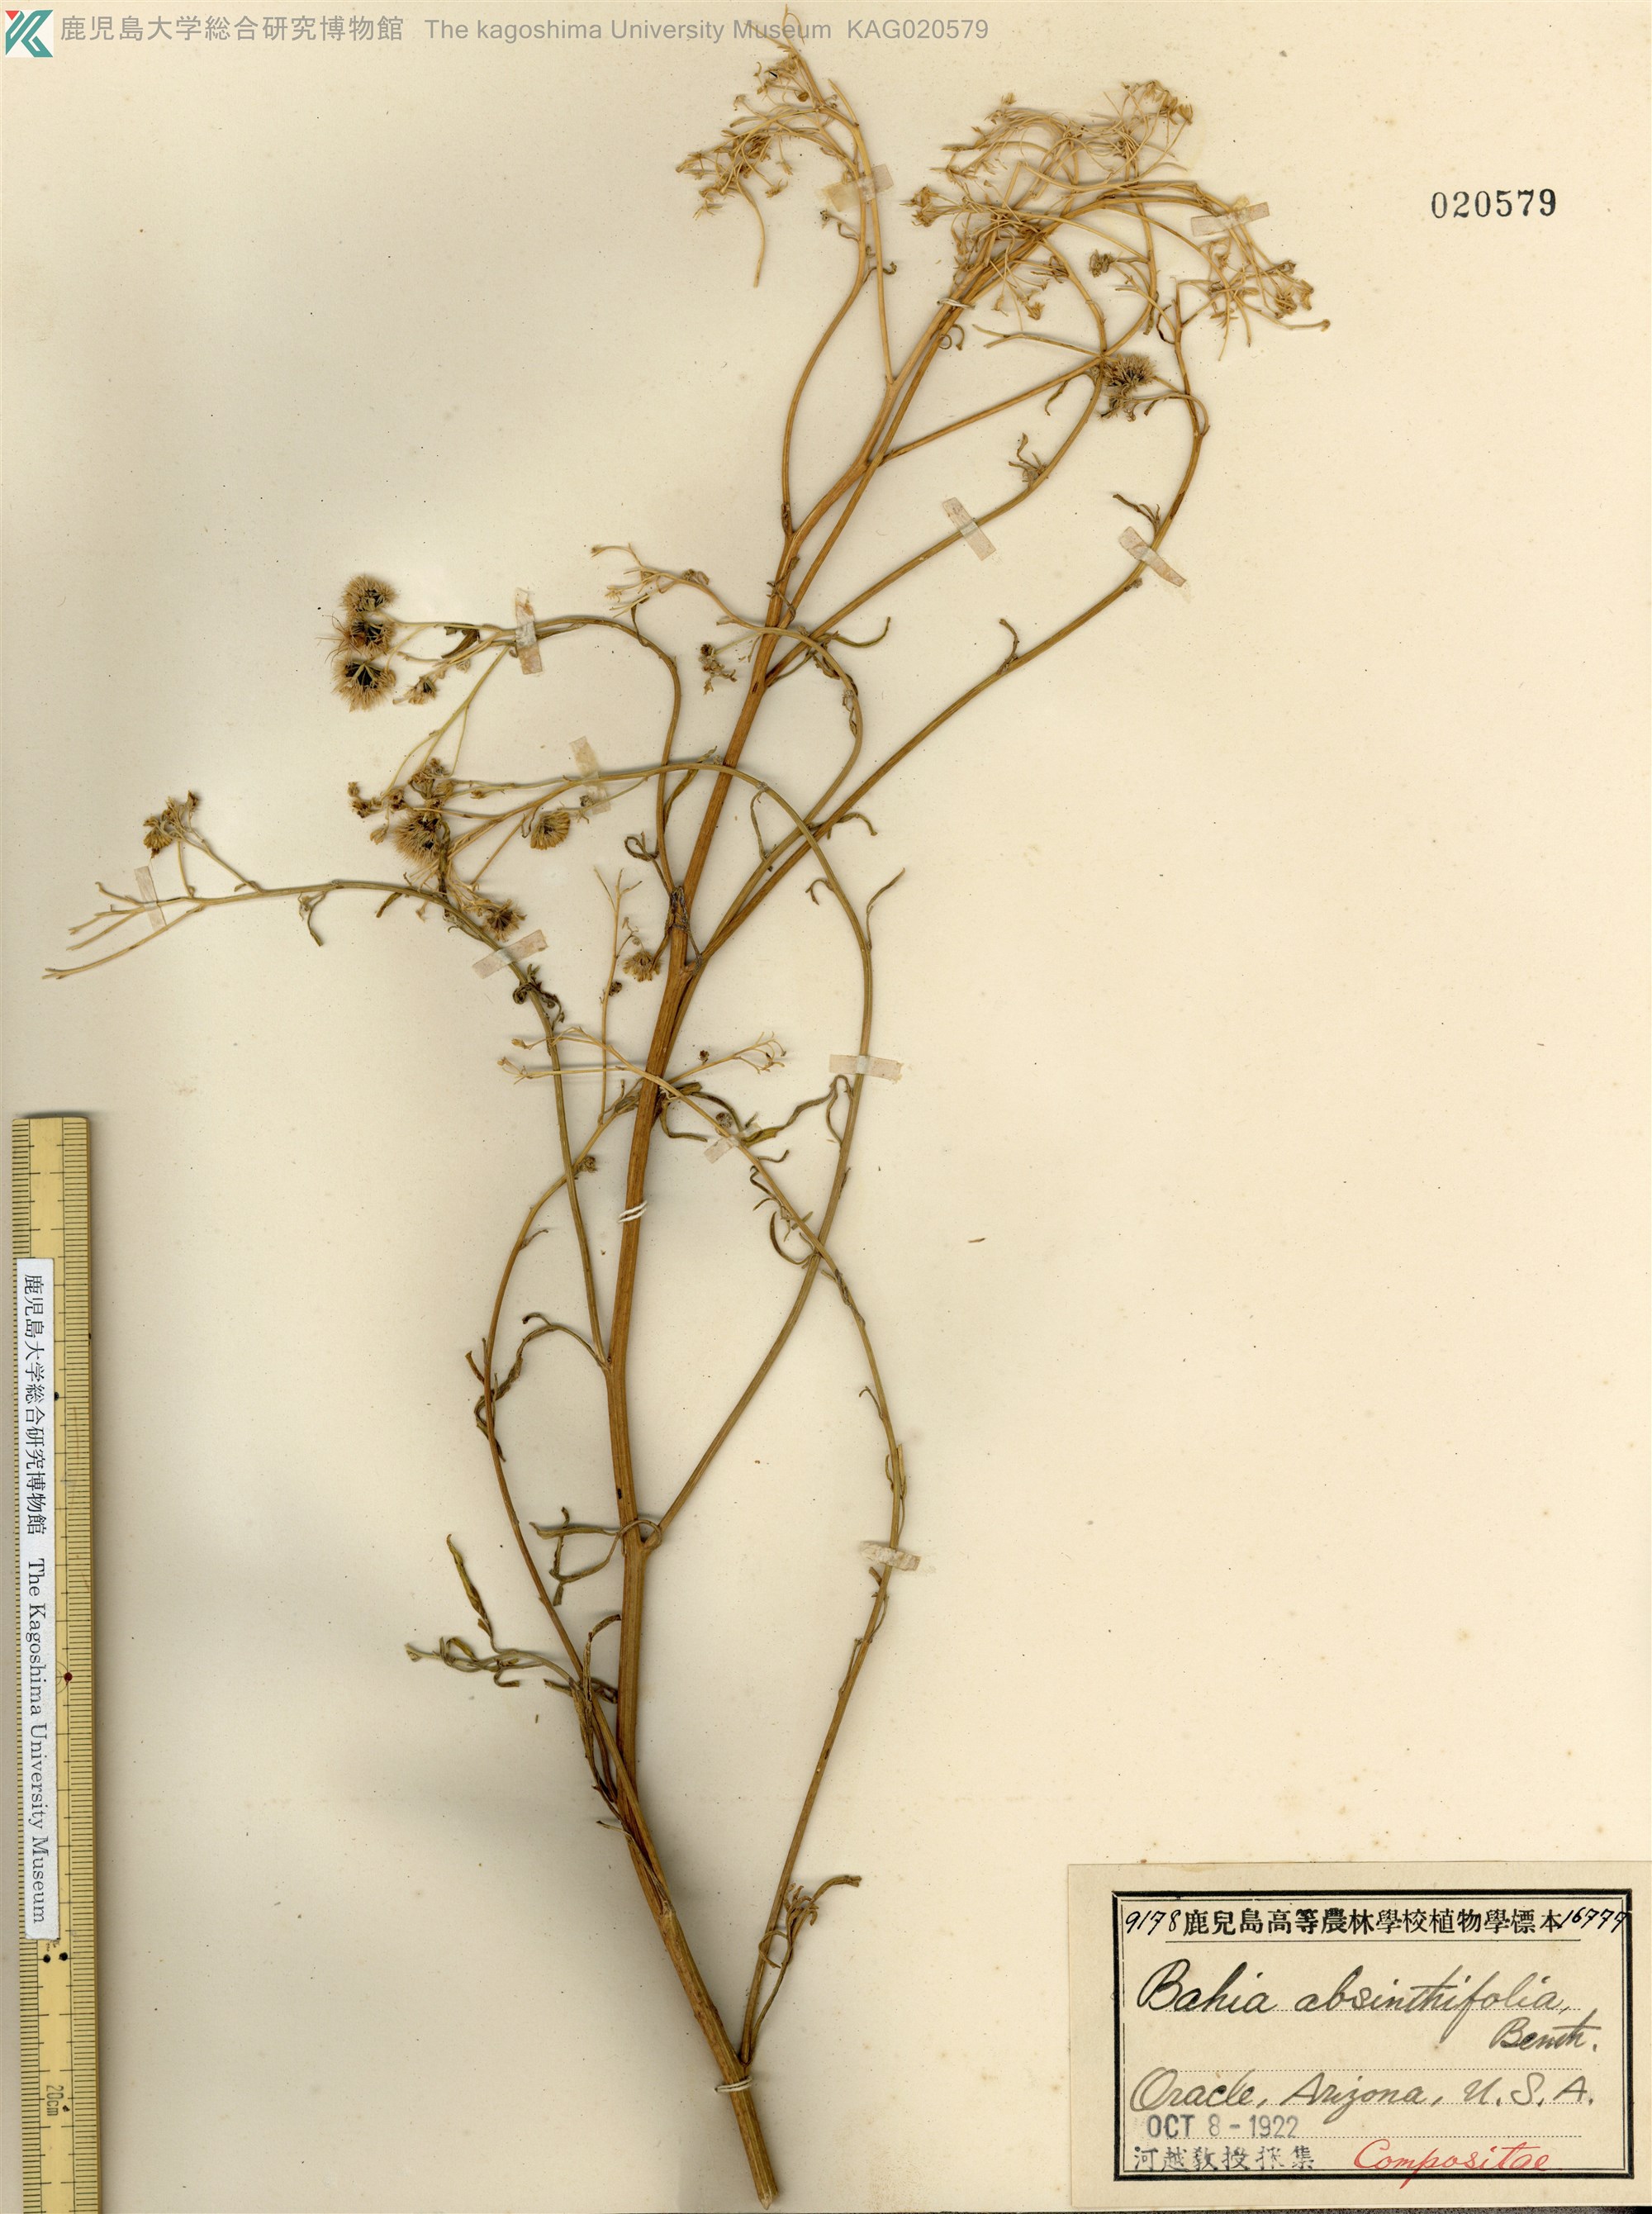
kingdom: Plantae
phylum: Tracheophyta
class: Magnoliopsida
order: Asterales
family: Asteraceae
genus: Hymenothrix
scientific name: Hymenothrix dissecta
